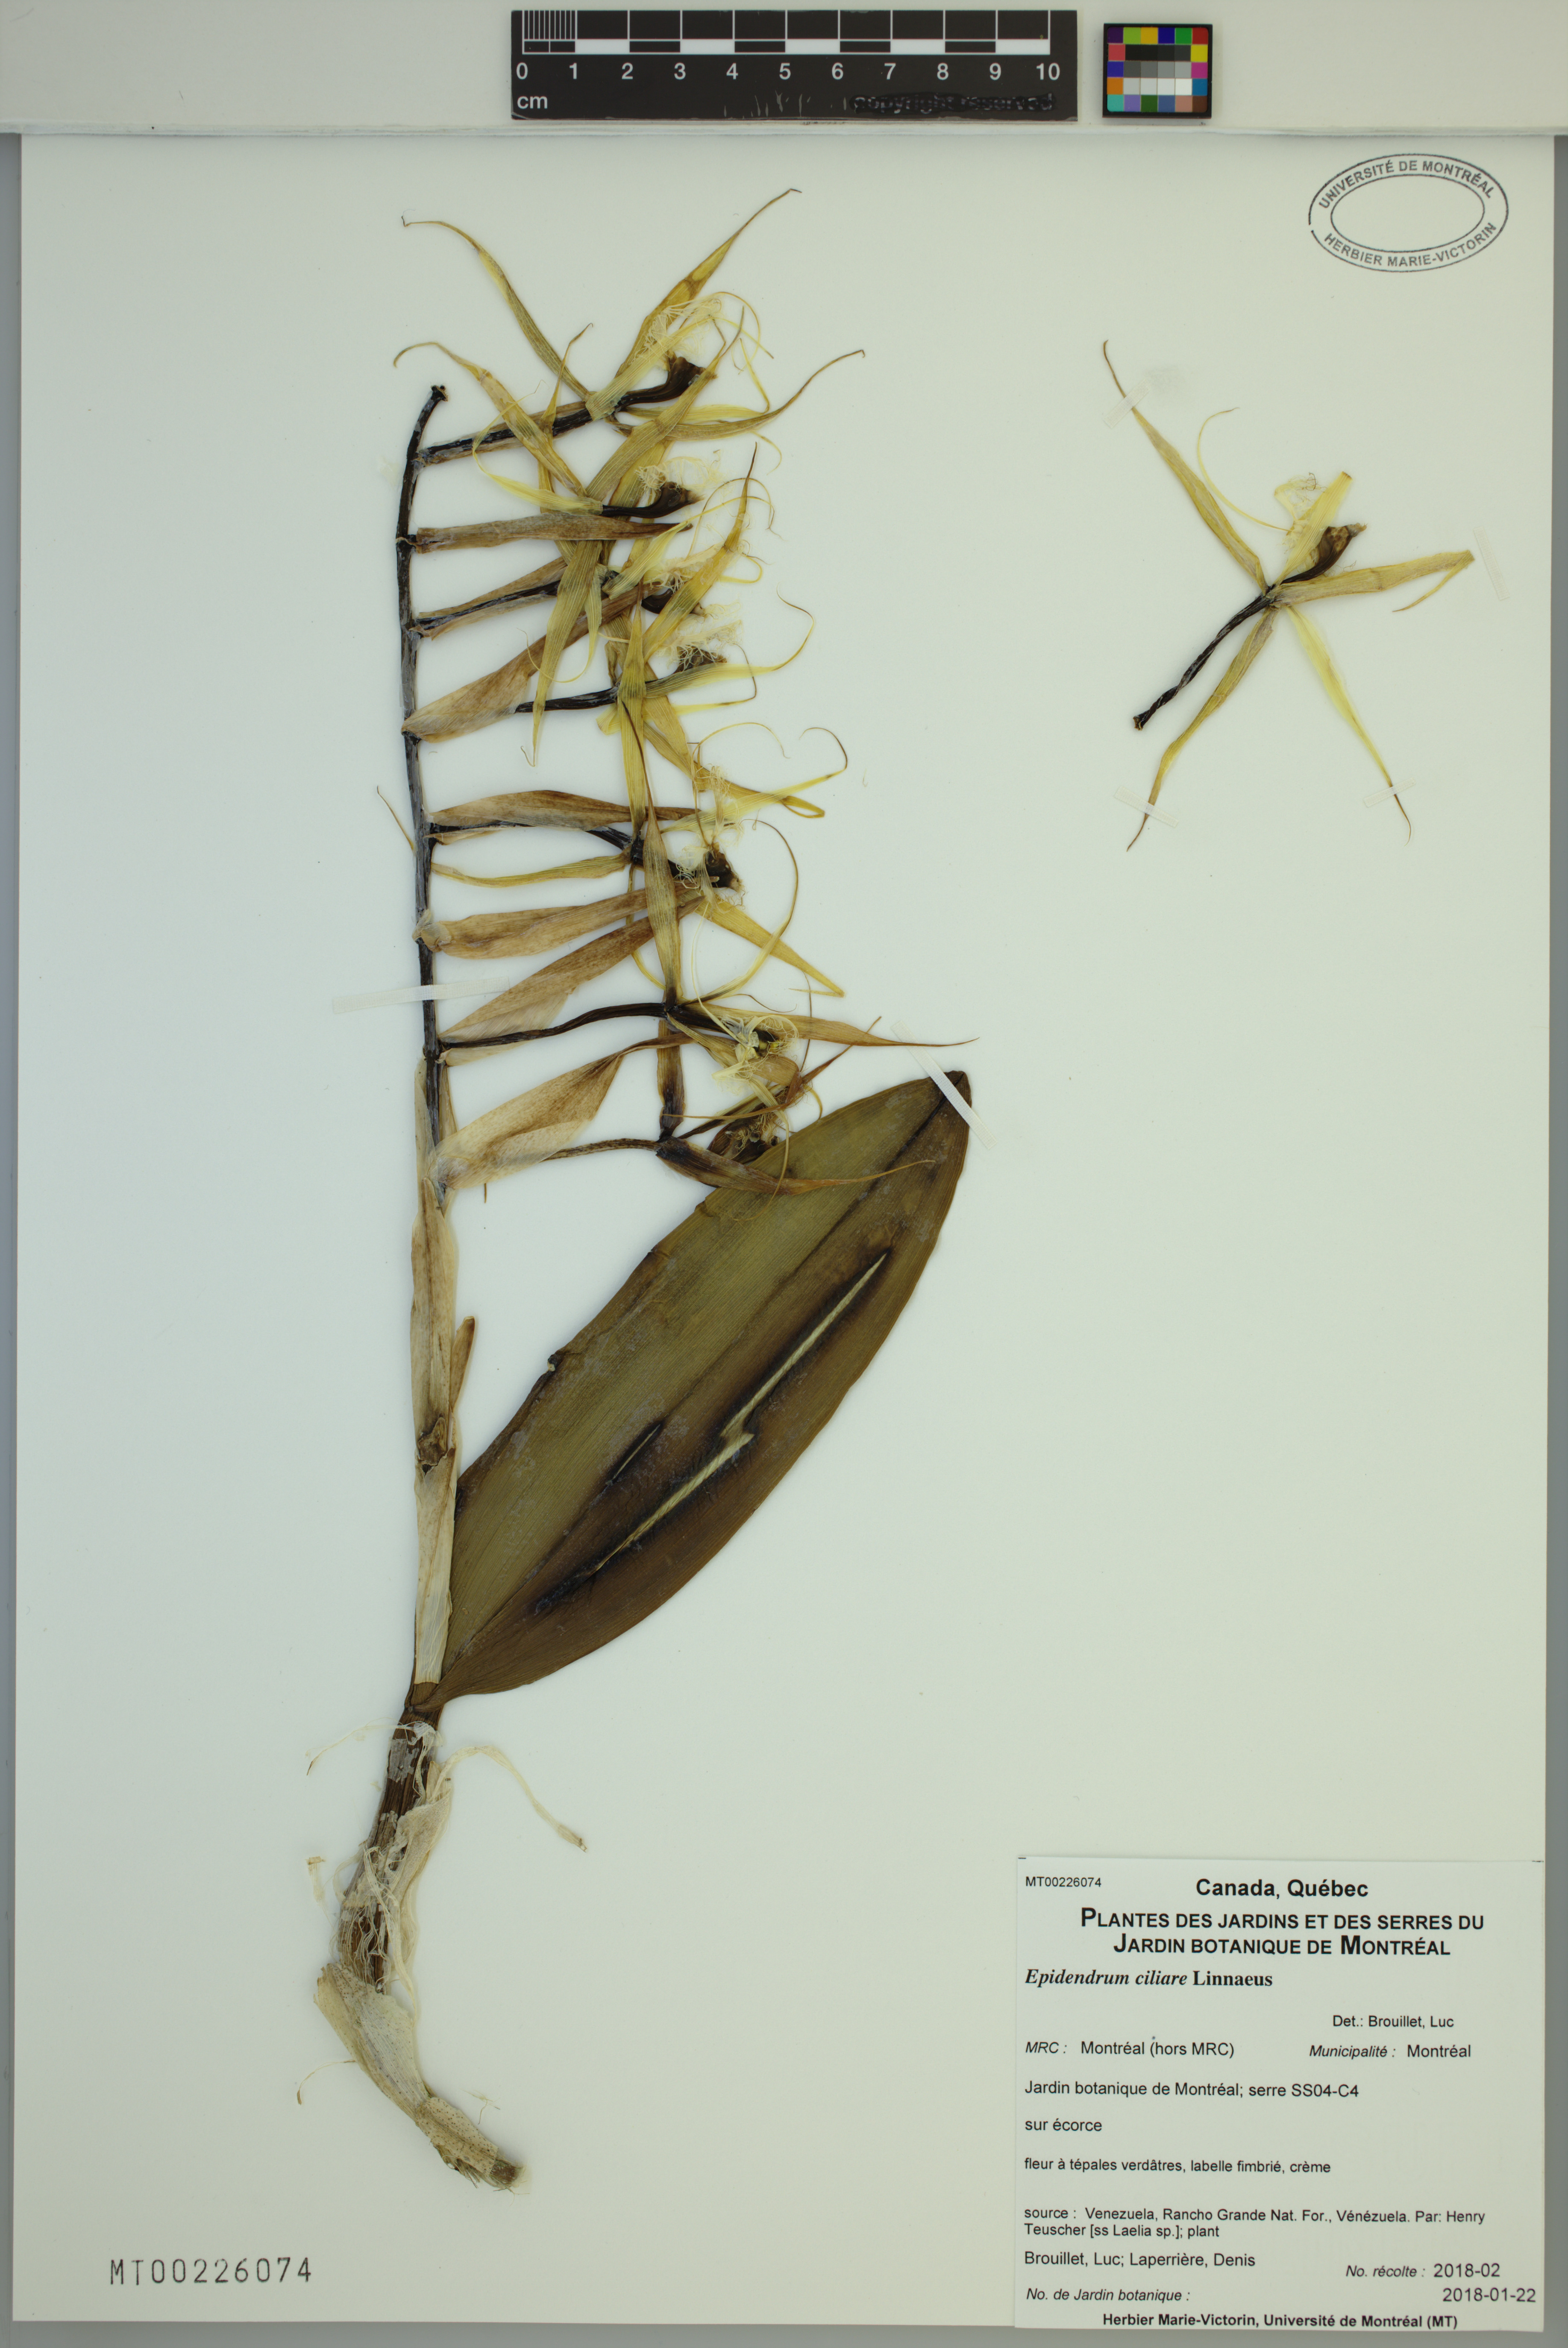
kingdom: Plantae
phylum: Tracheophyta
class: Liliopsida
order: Asparagales
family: Orchidaceae
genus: Epidendrum
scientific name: Epidendrum ciliare
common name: Eyelash orchid
